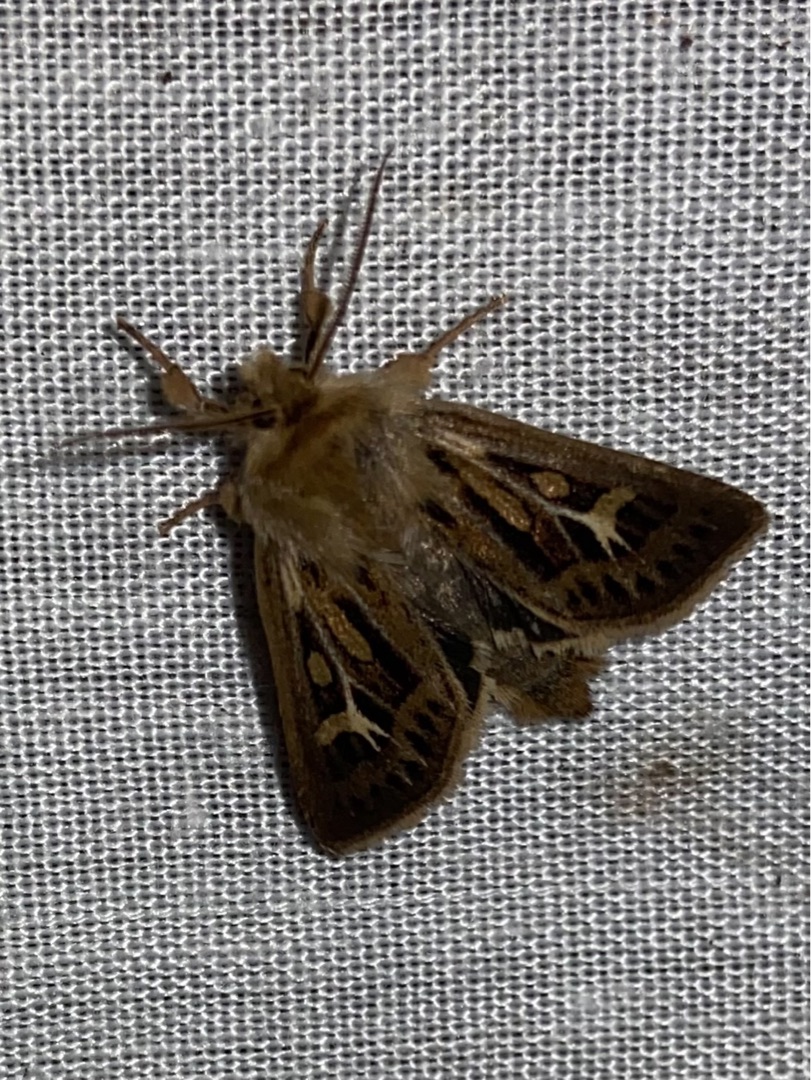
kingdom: Animalia
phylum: Arthropoda
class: Insecta
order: Lepidoptera
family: Noctuidae
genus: Cerapteryx
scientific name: Cerapteryx graminis
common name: Mosebunkeugle
